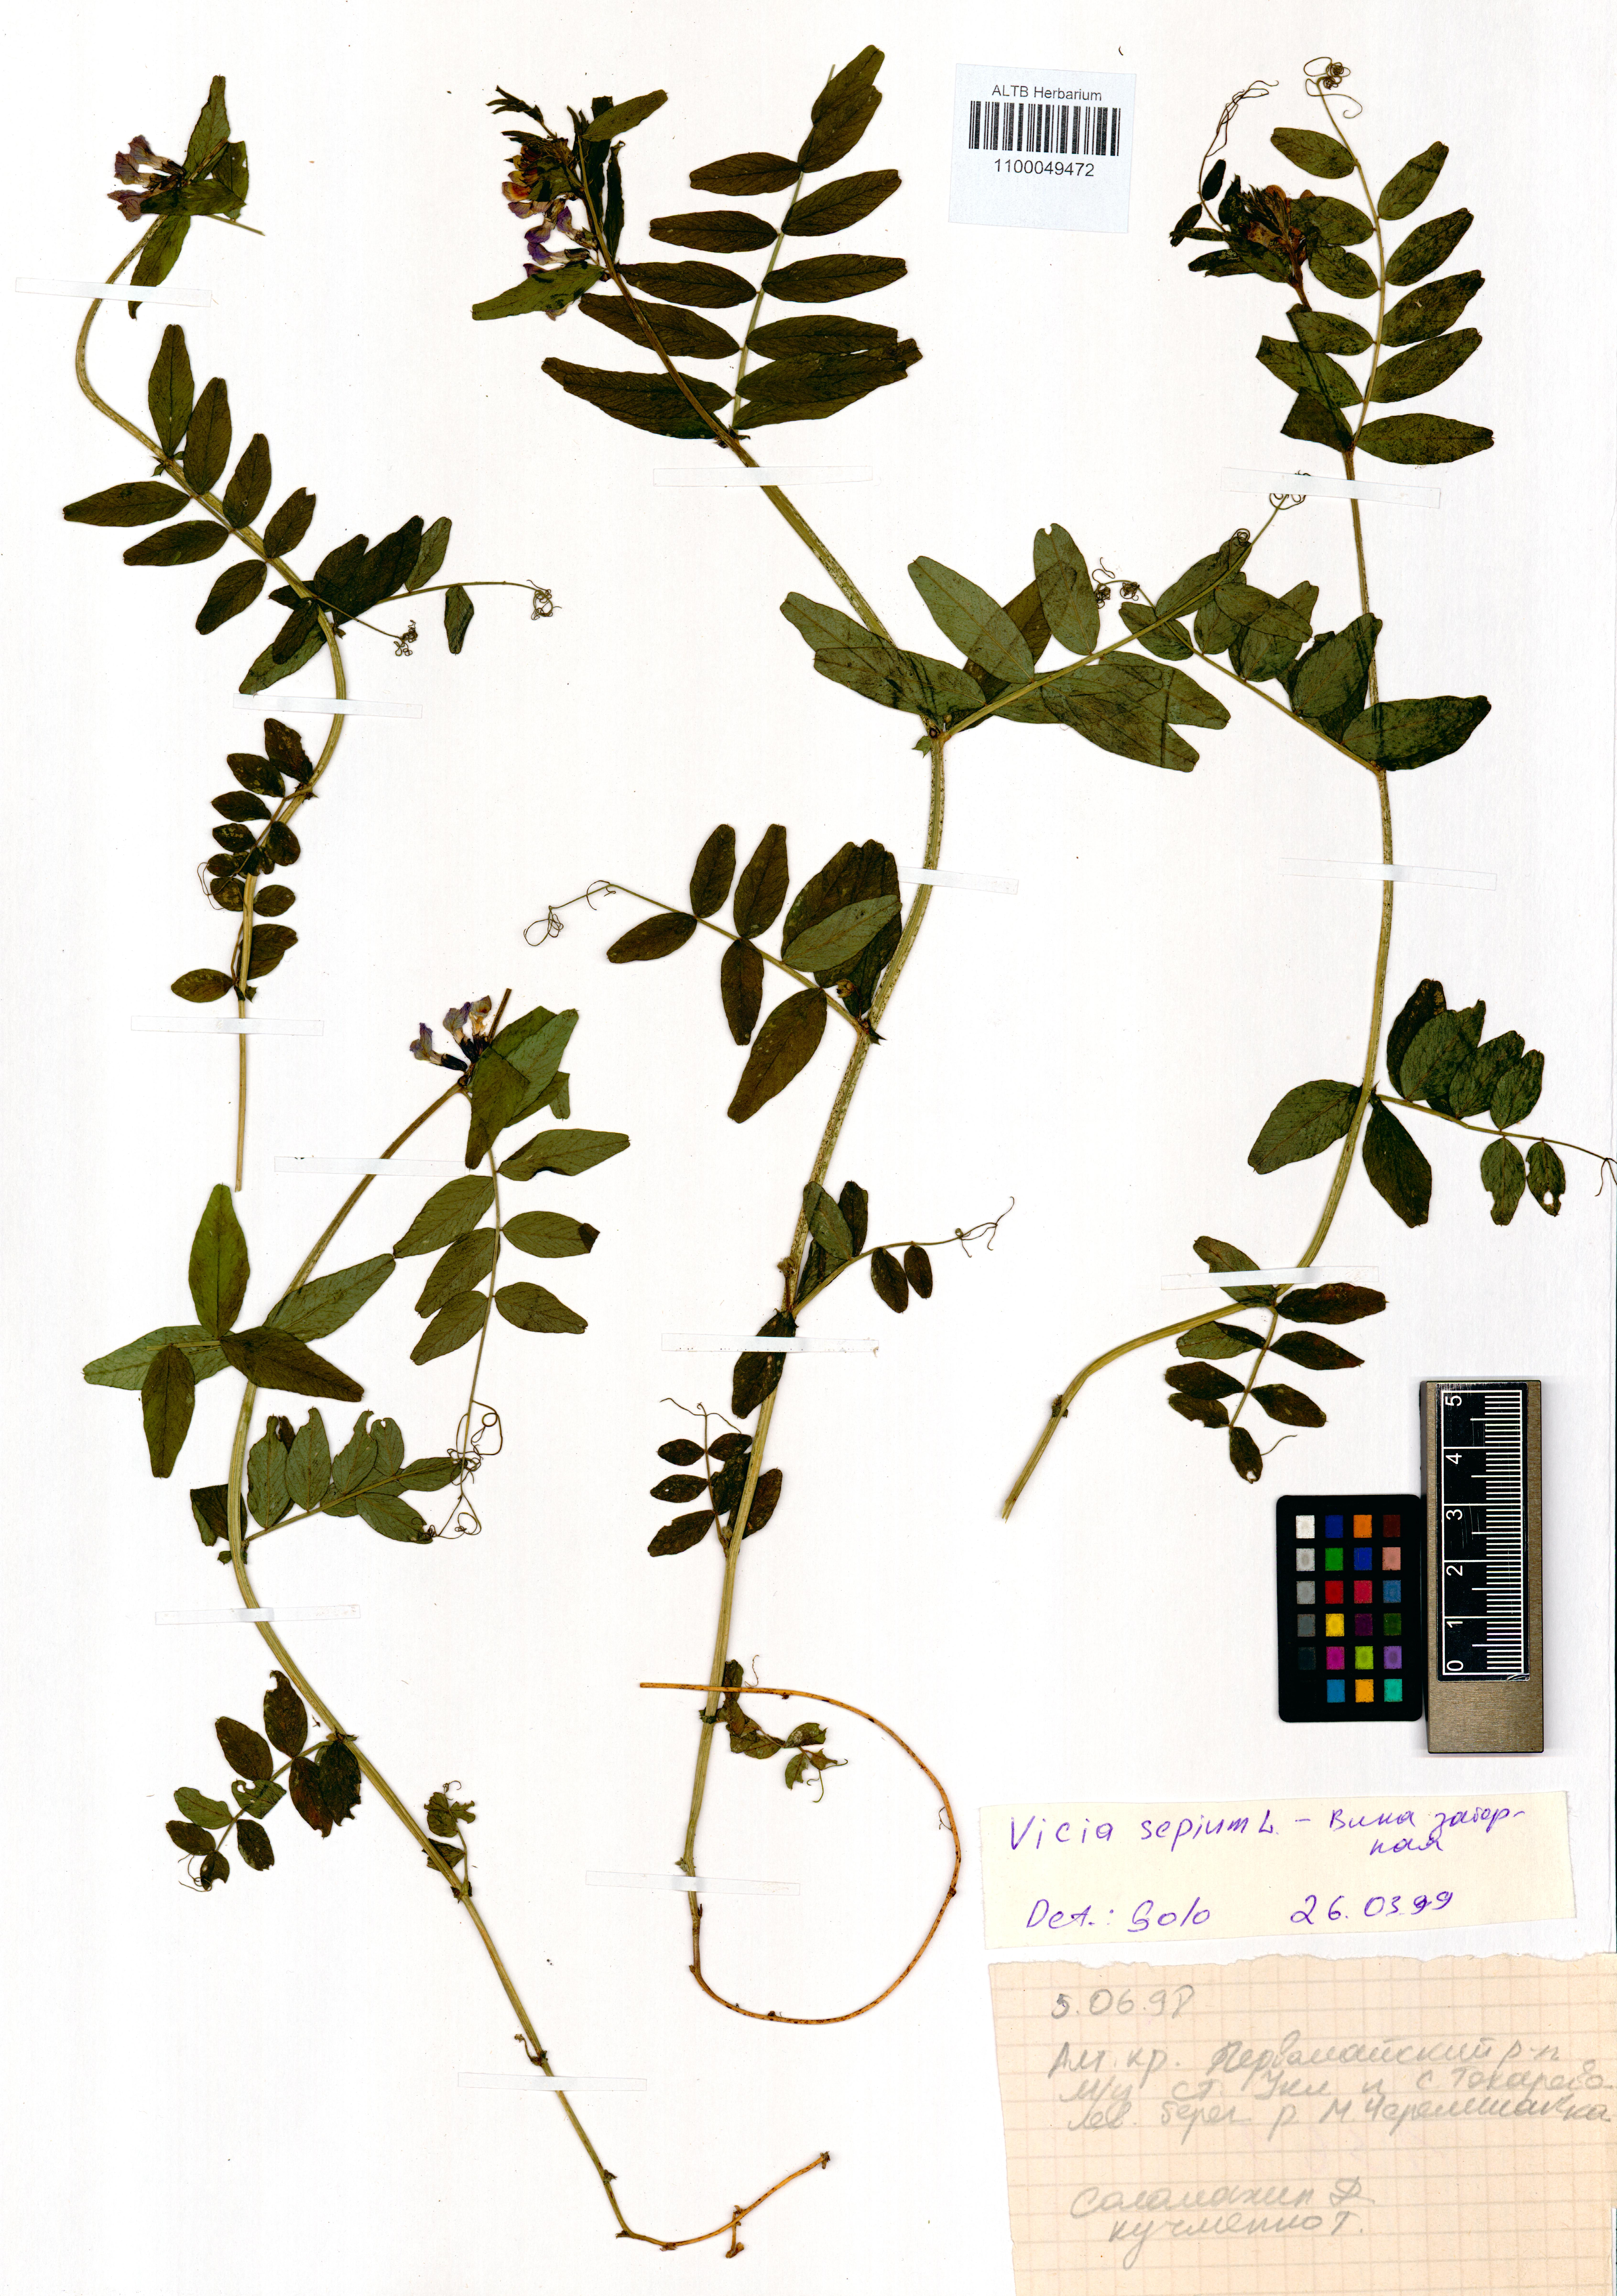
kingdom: Plantae
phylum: Tracheophyta
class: Magnoliopsida
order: Fabales
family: Fabaceae
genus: Vicia
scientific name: Vicia sepium
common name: Bush vetch
